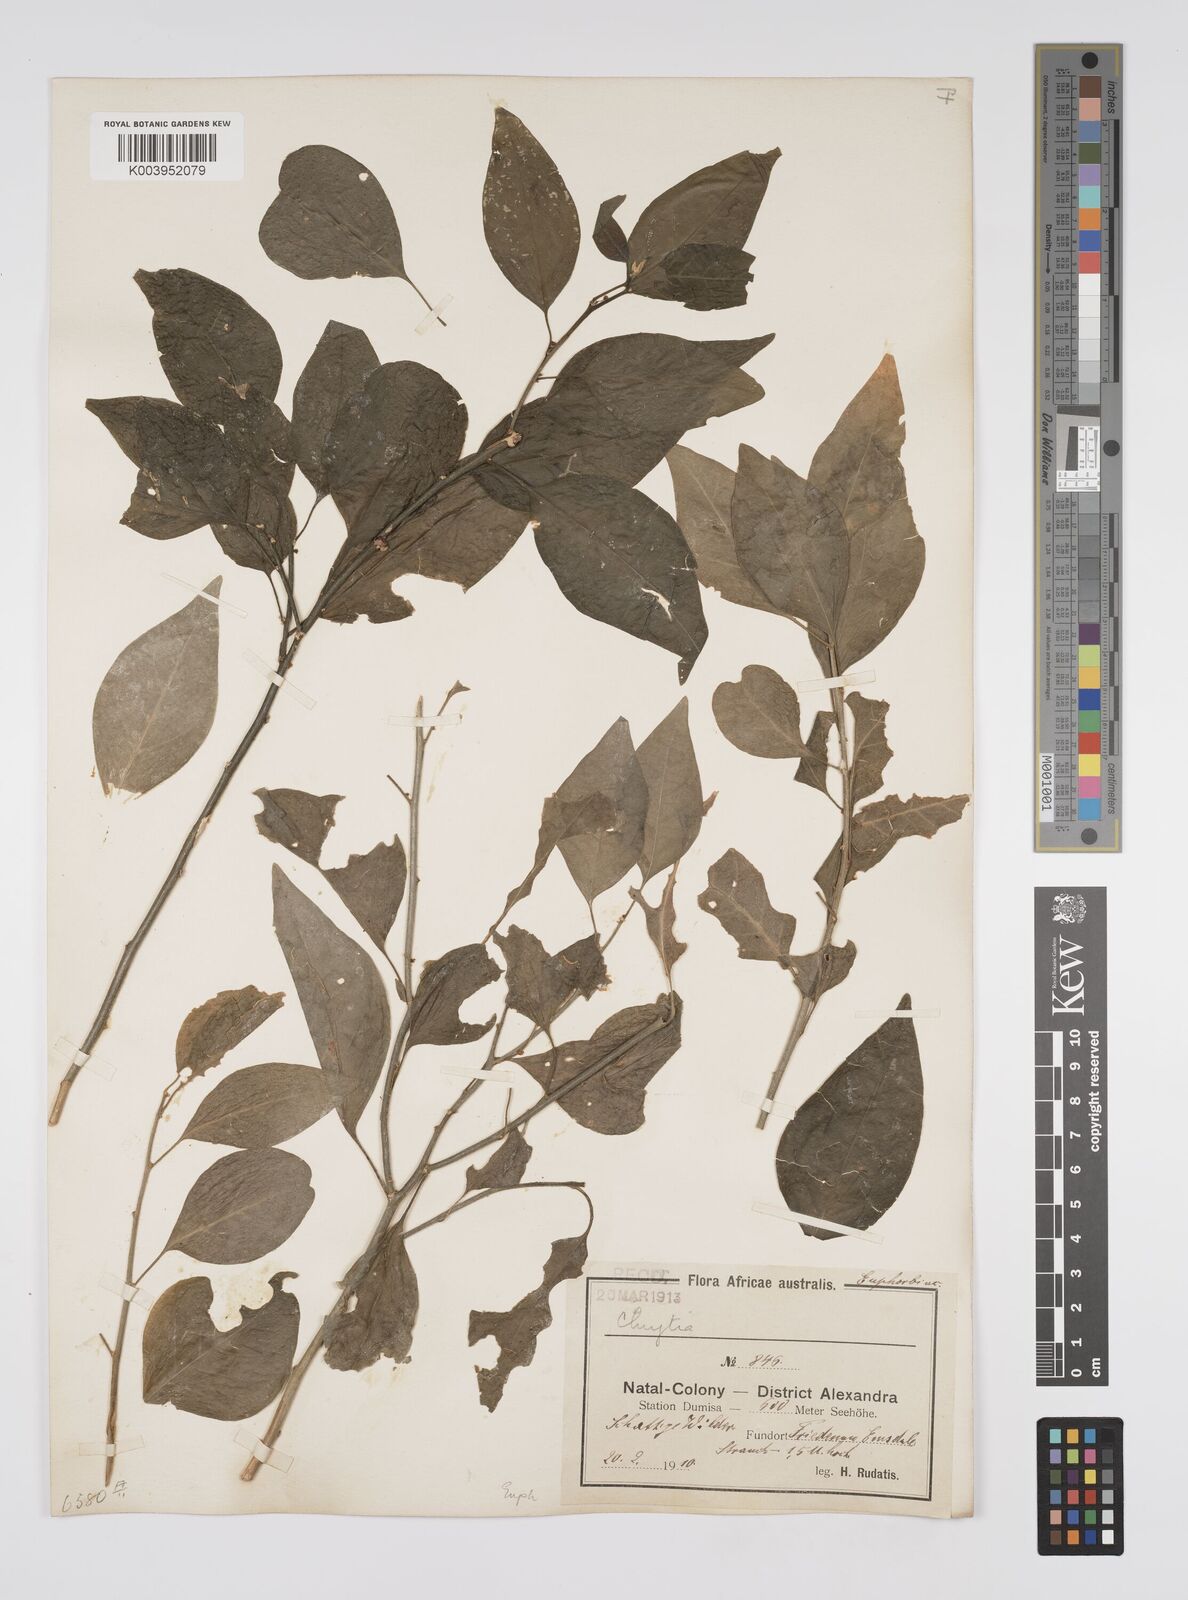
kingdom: Plantae
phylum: Tracheophyta
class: Magnoliopsida
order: Malpighiales
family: Peraceae
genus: Clutia
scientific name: Clutia
